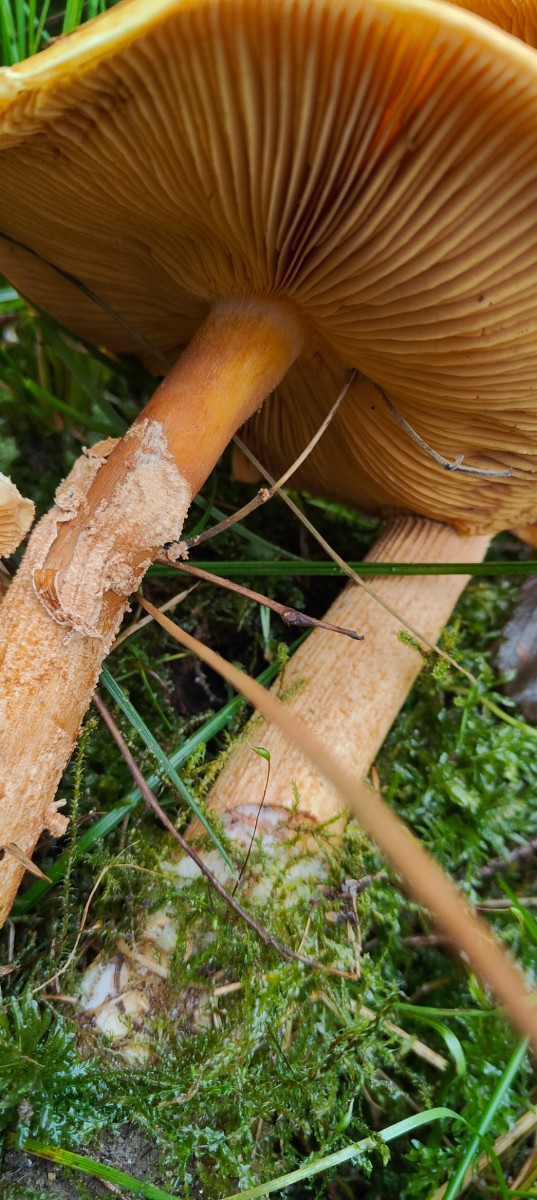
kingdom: Fungi
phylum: Basidiomycota
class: Agaricomycetes
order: Agaricales
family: Tricholomataceae
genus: Phaeolepiota
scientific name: Phaeolepiota aurea
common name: gyldenhat
